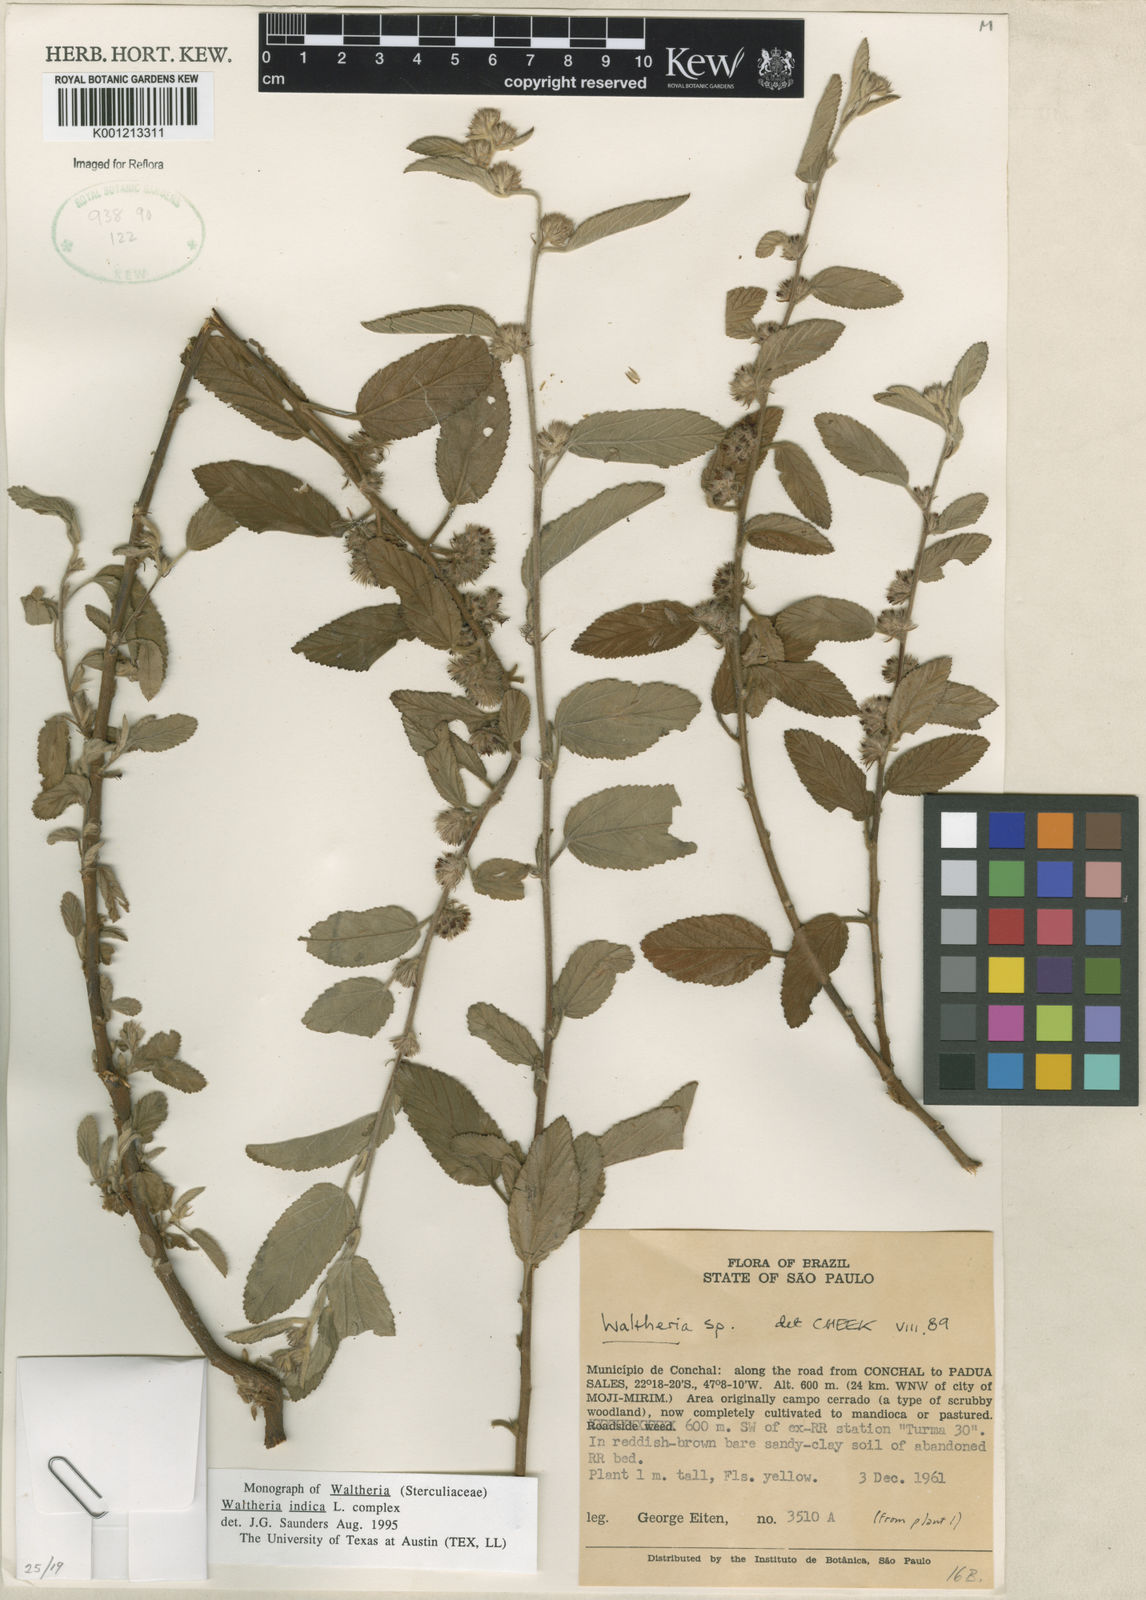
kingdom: Plantae
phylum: Tracheophyta
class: Magnoliopsida
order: Malvales
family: Malvaceae
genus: Waltheria
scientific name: Waltheria indica
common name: Leather-coat
